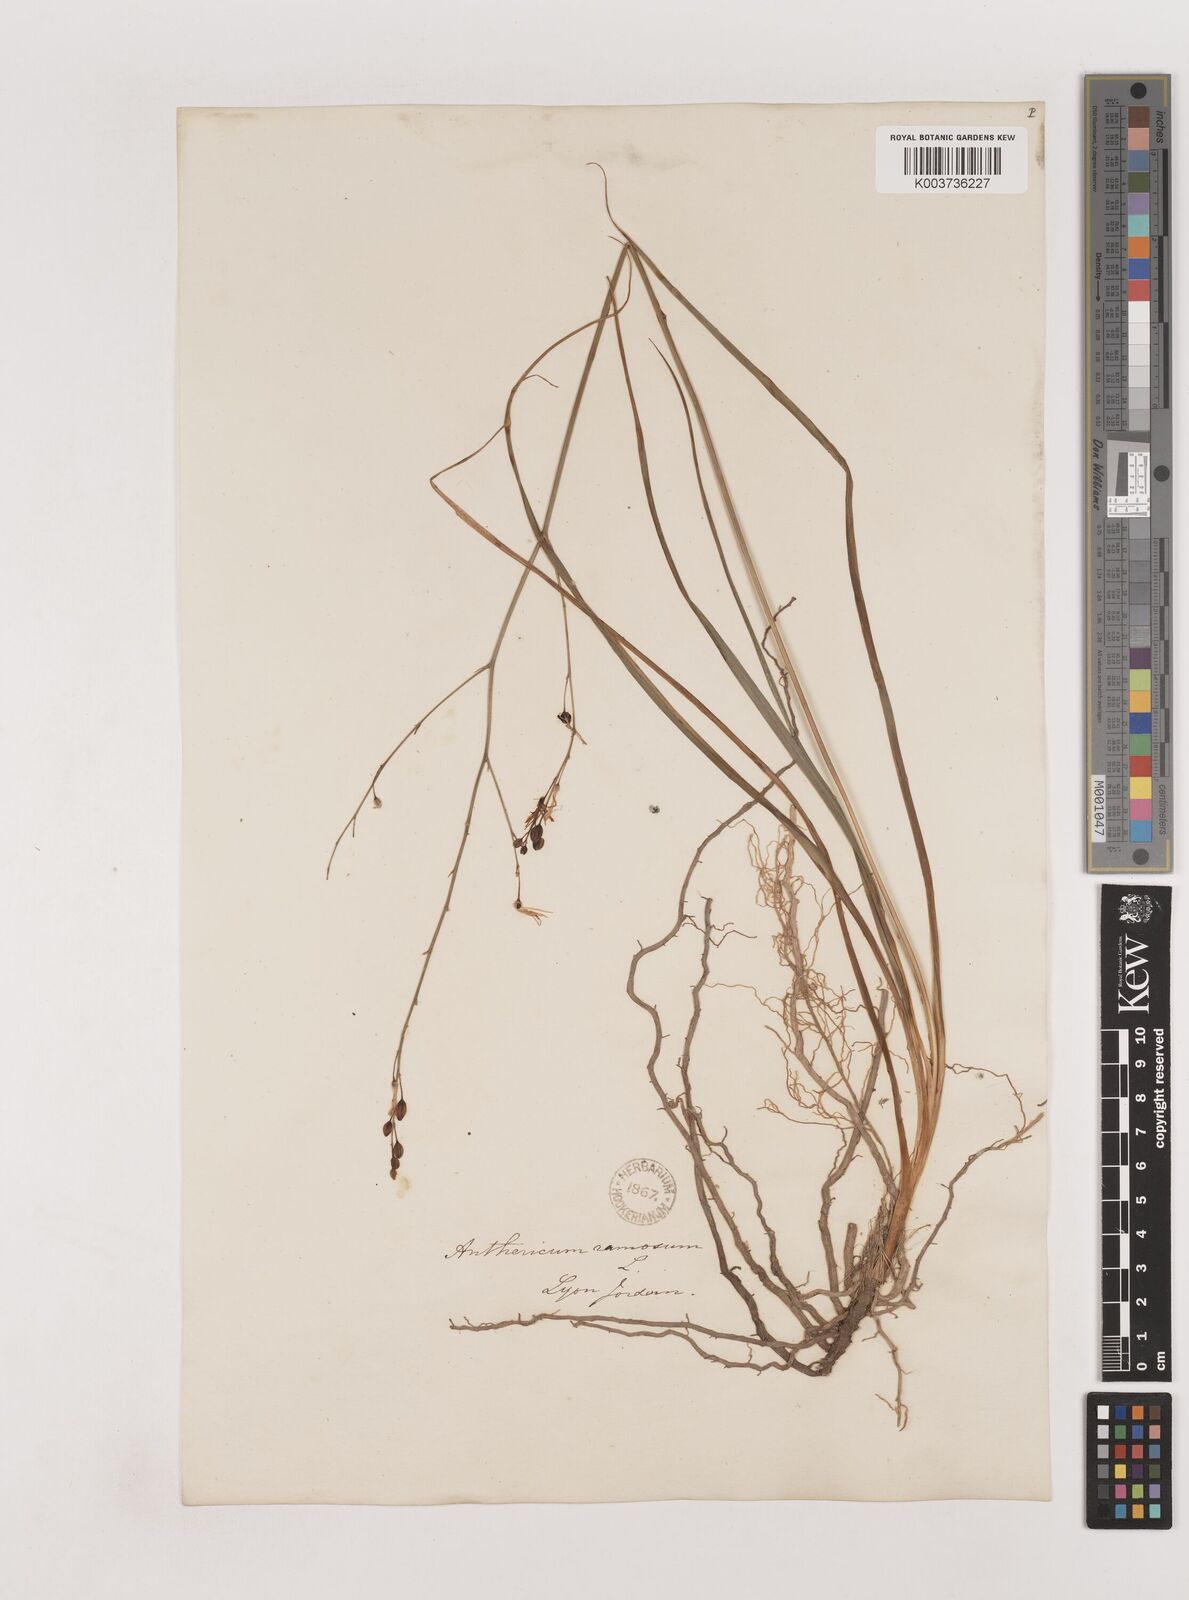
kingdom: Plantae
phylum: Tracheophyta
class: Liliopsida
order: Asparagales
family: Asparagaceae
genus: Anthericum
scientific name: Anthericum ramosum
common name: Branched st. bernard's-lily
